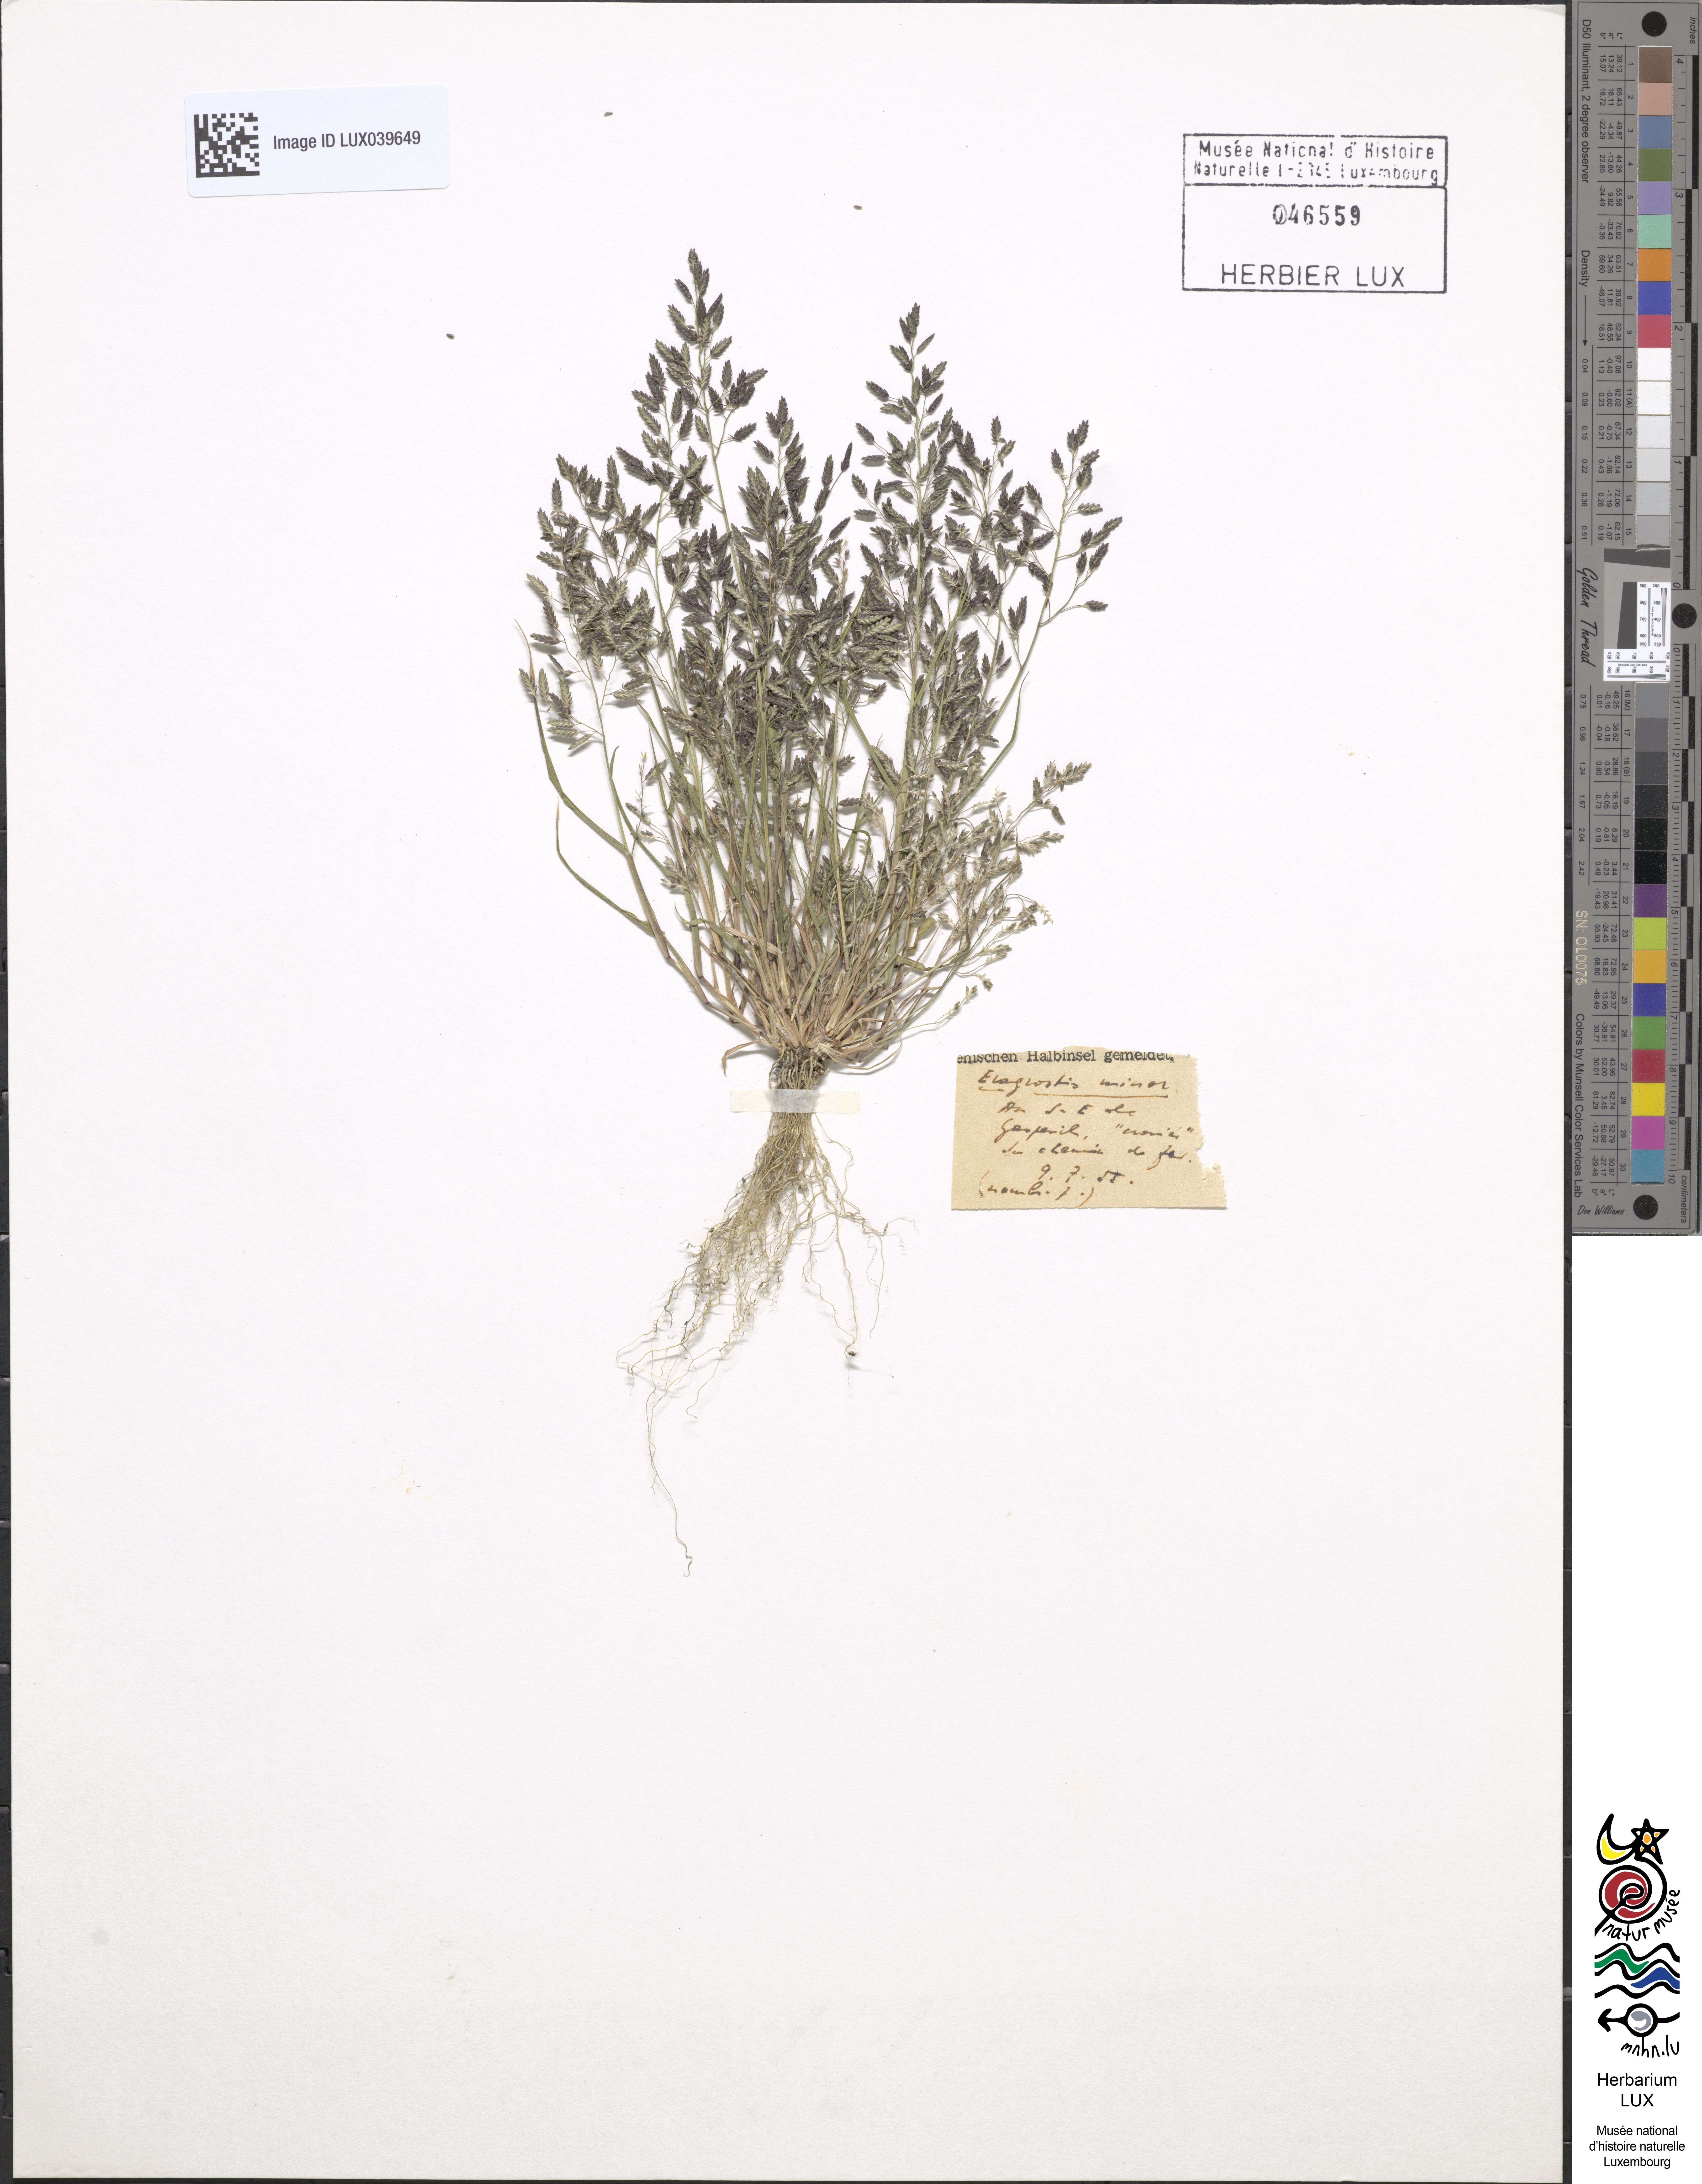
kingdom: Plantae
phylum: Tracheophyta
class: Liliopsida
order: Poales
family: Poaceae
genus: Eragrostis
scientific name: Eragrostis minor
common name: Small love-grass
